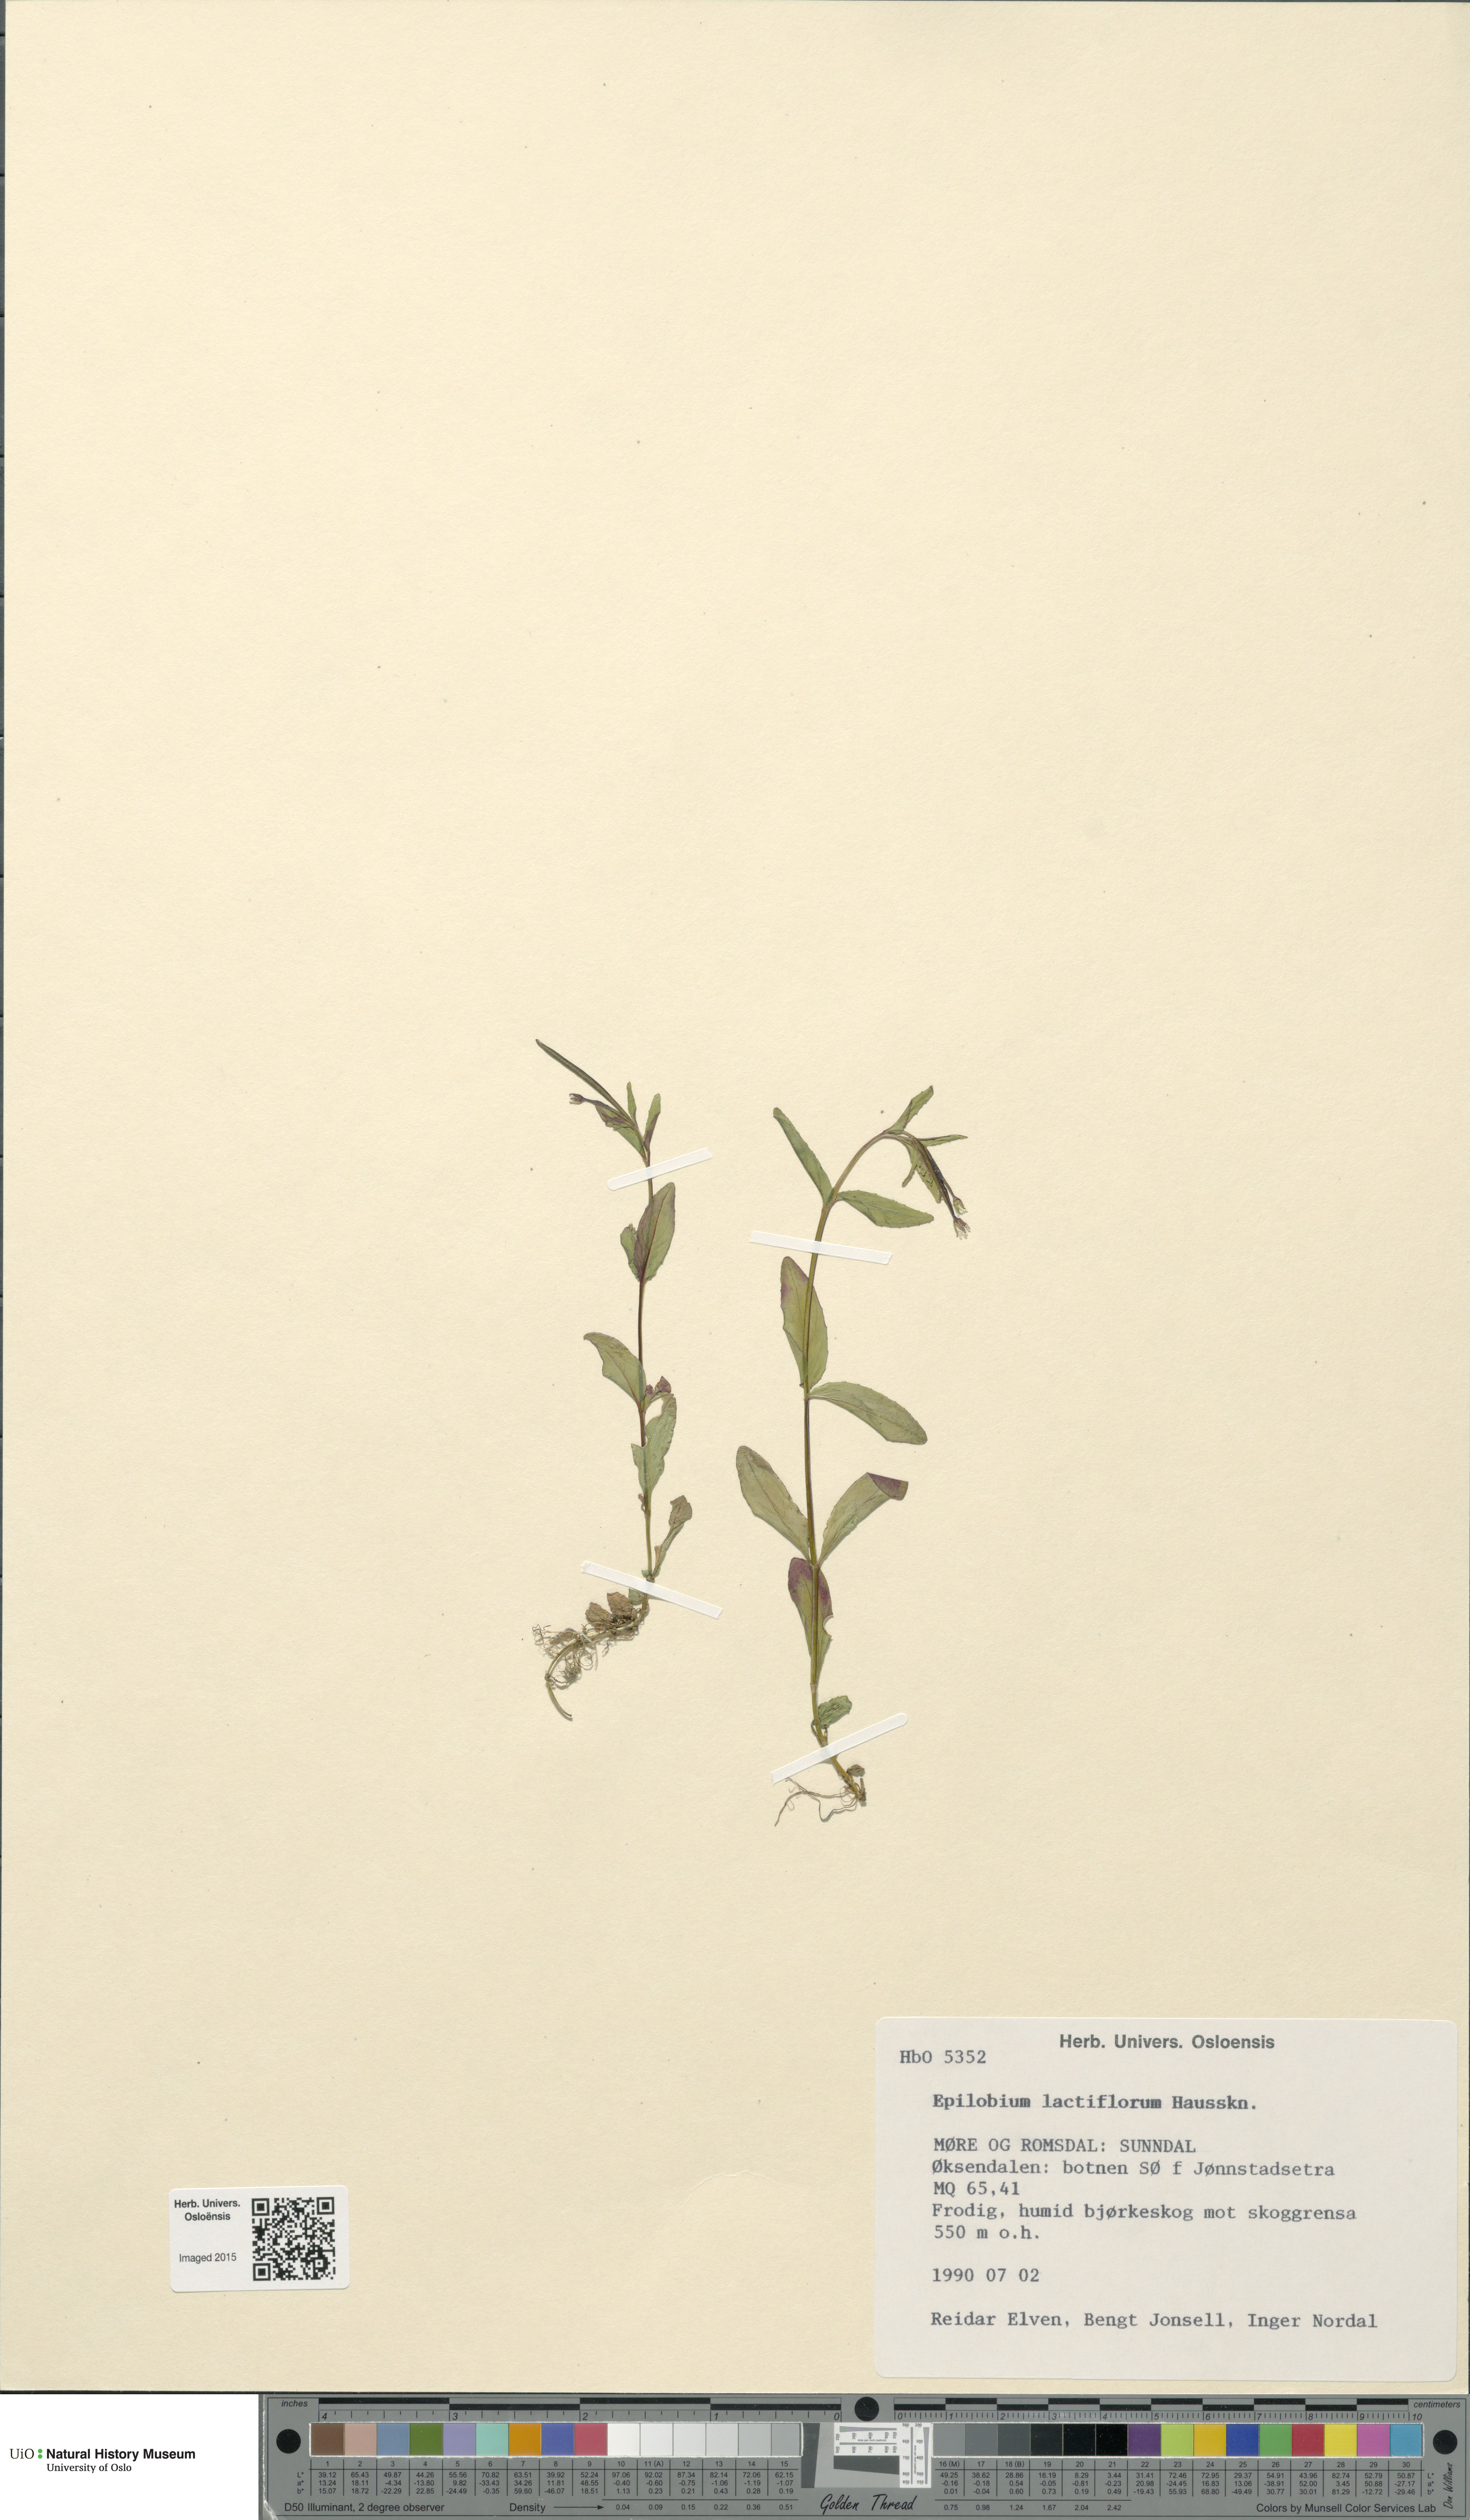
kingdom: Plantae
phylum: Tracheophyta
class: Magnoliopsida
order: Myrtales
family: Onagraceae
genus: Epilobium
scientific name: Epilobium lactiflorum
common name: Milkflower willowherb
